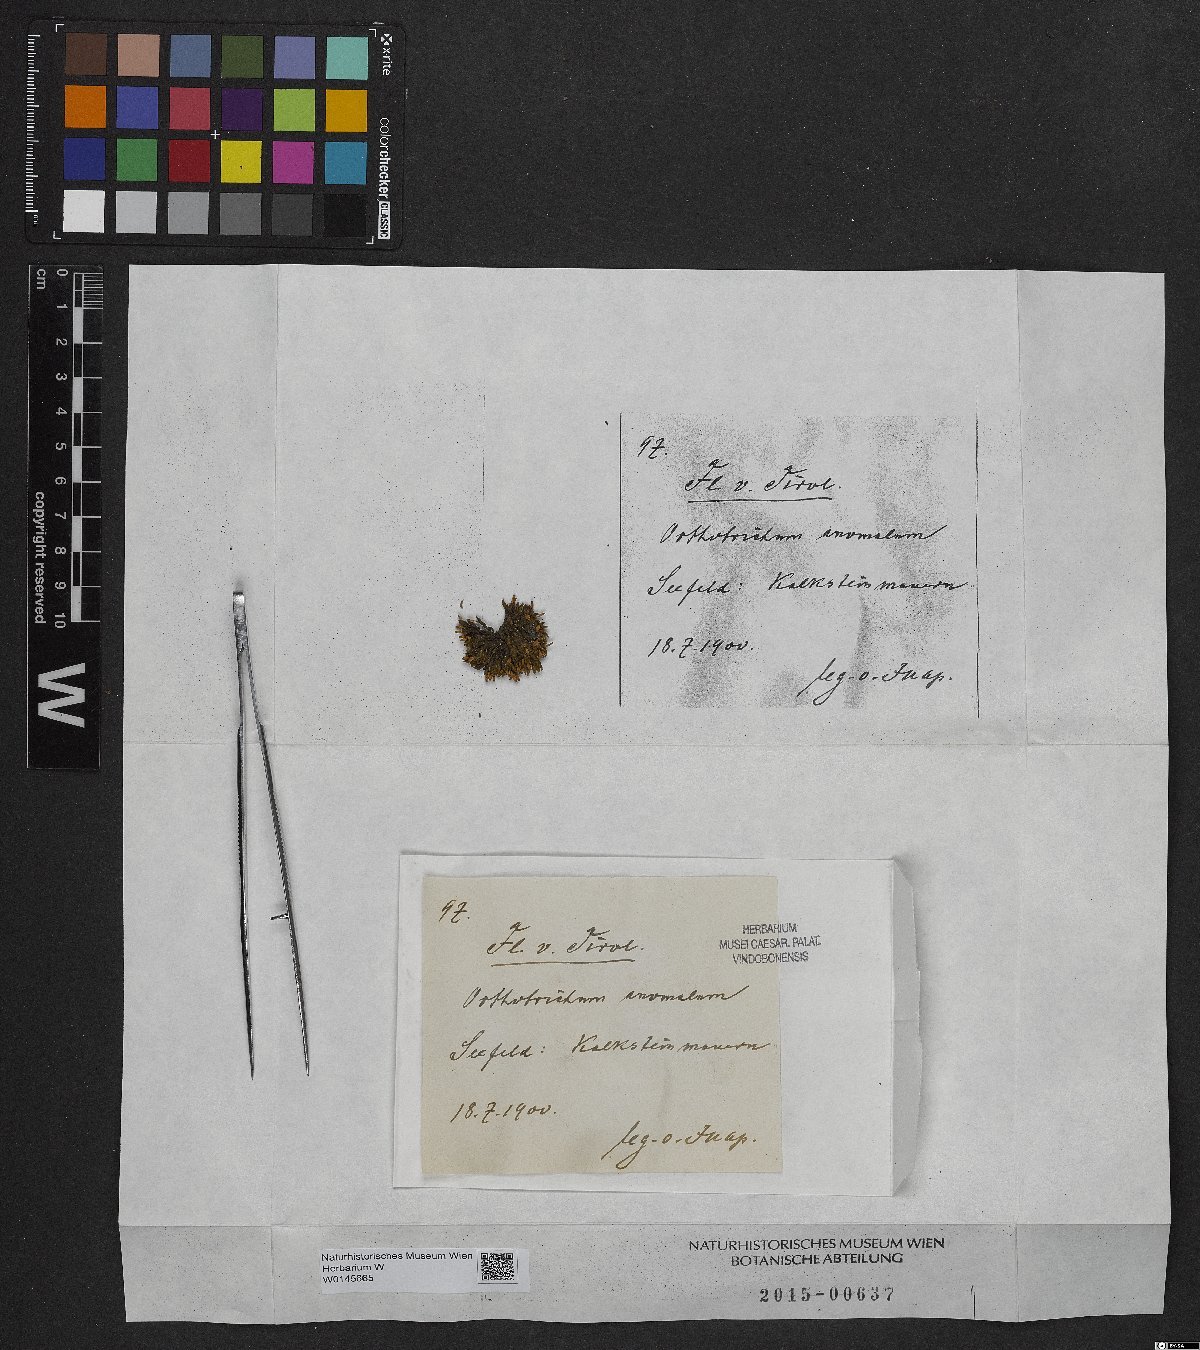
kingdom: Plantae
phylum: Bryophyta
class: Bryopsida
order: Orthotrichales
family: Orthotrichaceae
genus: Orthotrichum
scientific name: Orthotrichum anomalum
